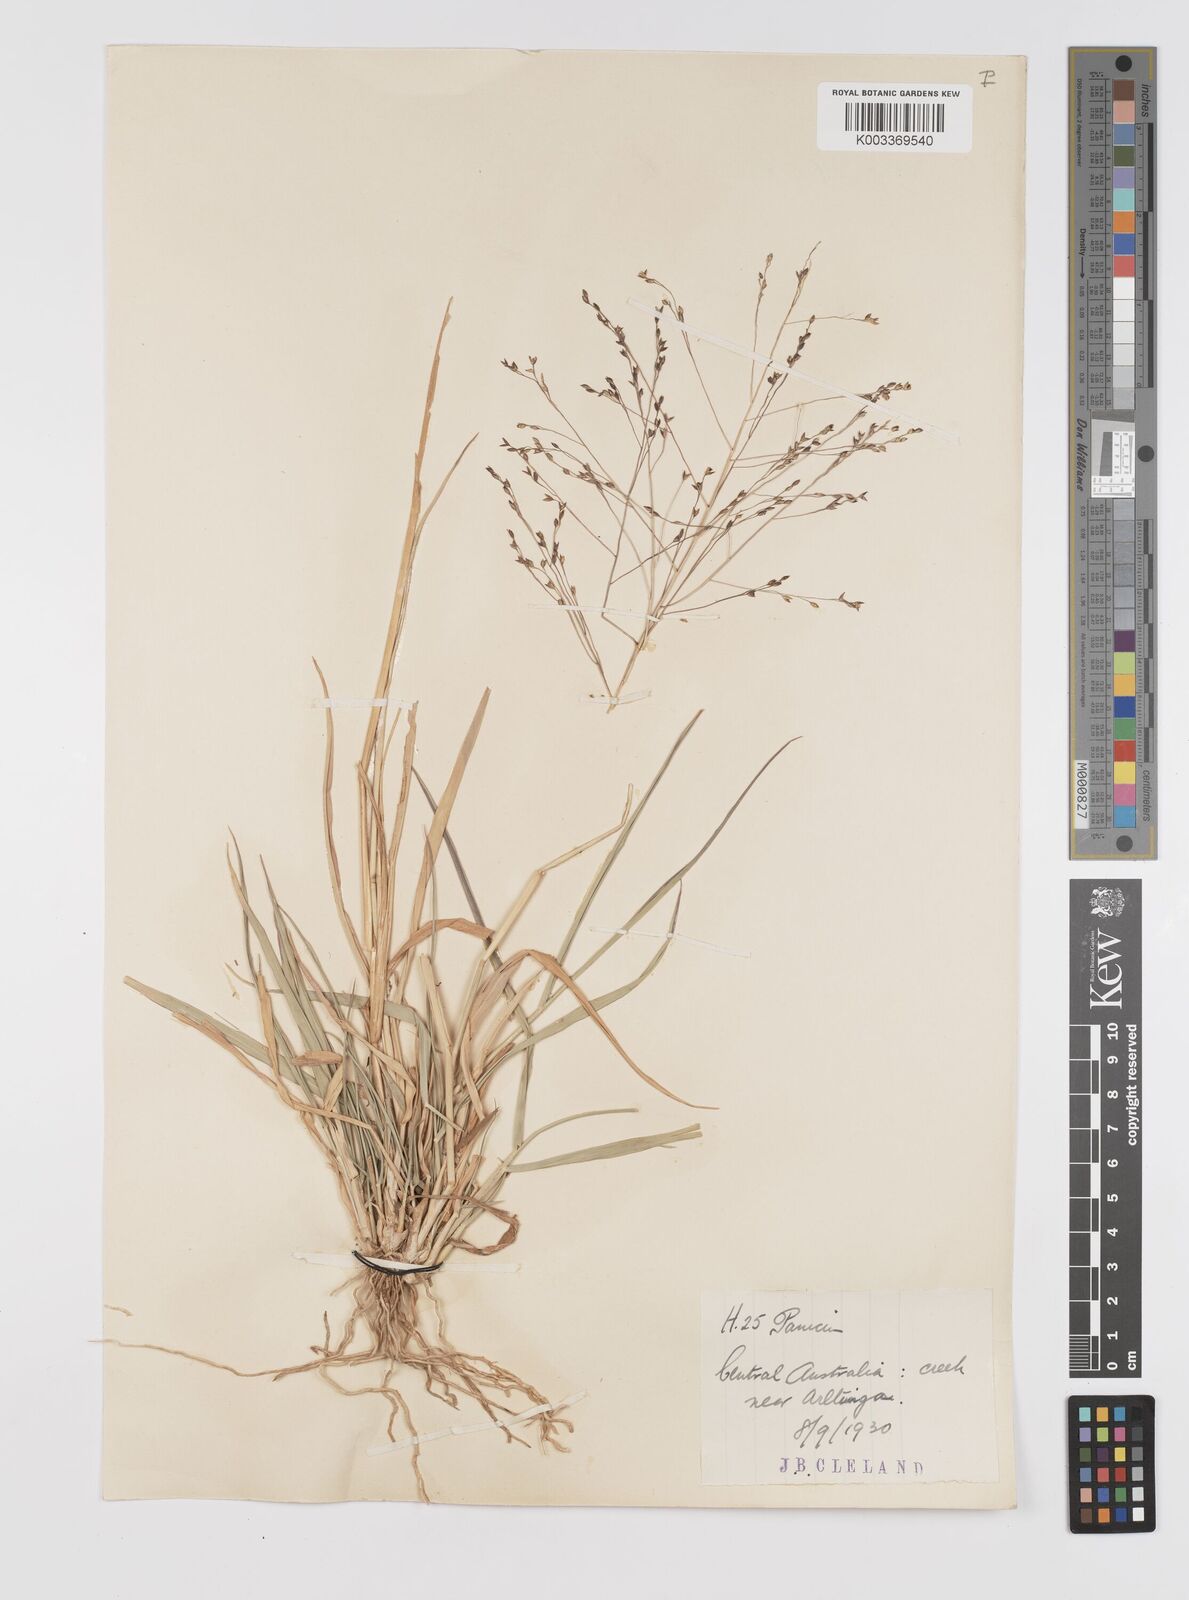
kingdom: Plantae
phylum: Tracheophyta
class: Liliopsida
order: Poales
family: Poaceae
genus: Panicum
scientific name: Panicum decompositum
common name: Australian millet
